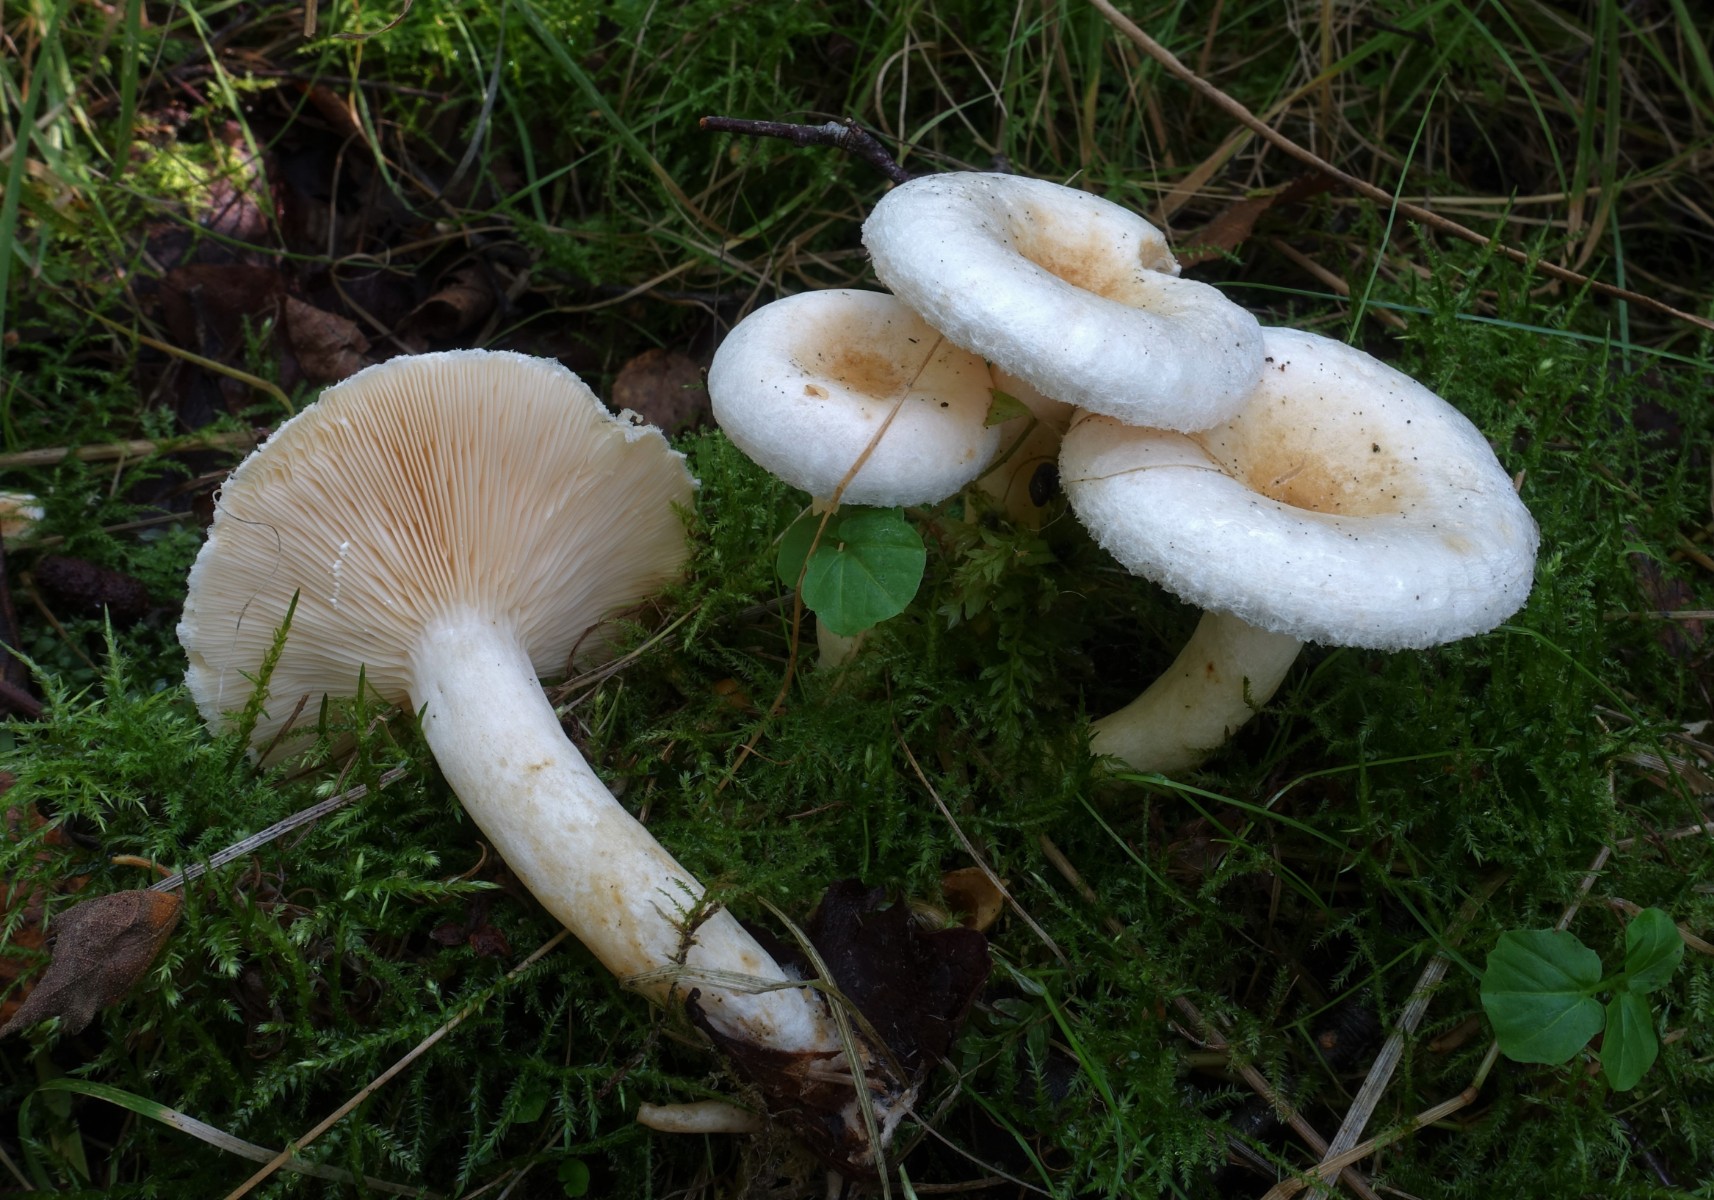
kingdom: Fungi
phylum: Basidiomycota
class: Agaricomycetes
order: Russulales
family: Russulaceae
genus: Lactarius
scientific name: Lactarius scoticus
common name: tørve-mælkehat
